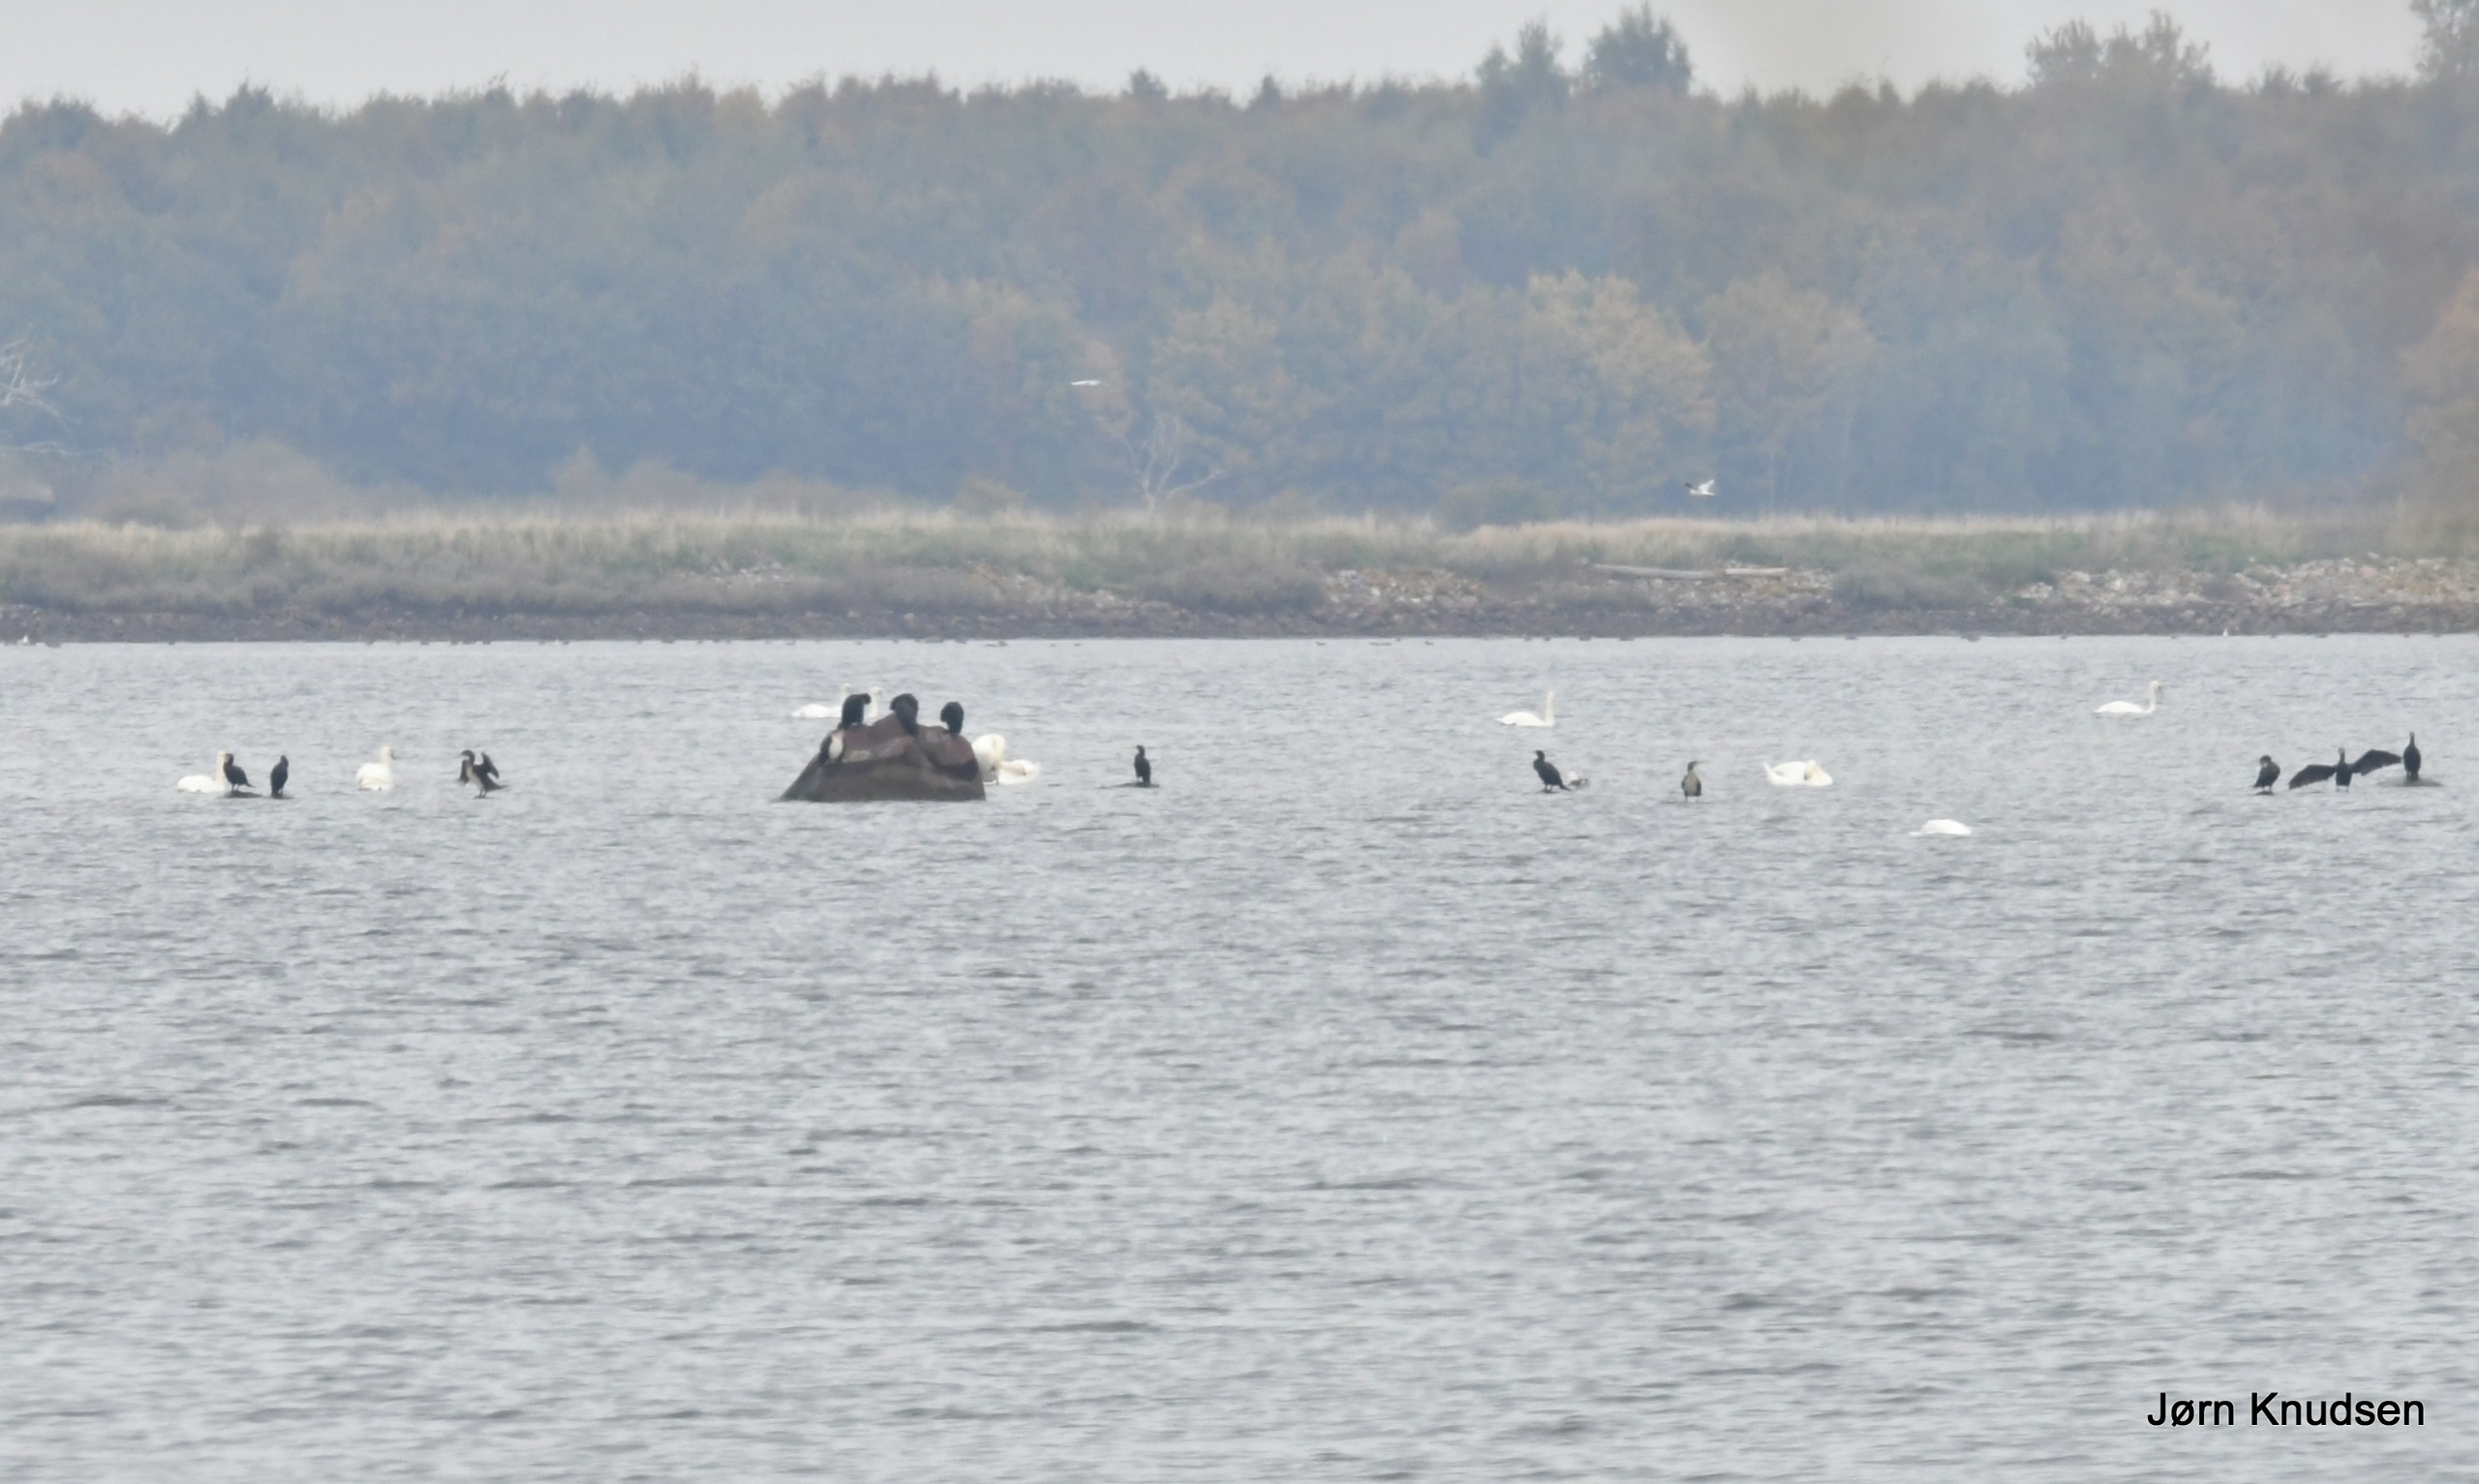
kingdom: Animalia
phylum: Chordata
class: Aves
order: Suliformes
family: Phalacrocoracidae
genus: Phalacrocorax
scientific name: Phalacrocorax carbo
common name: Skarv
